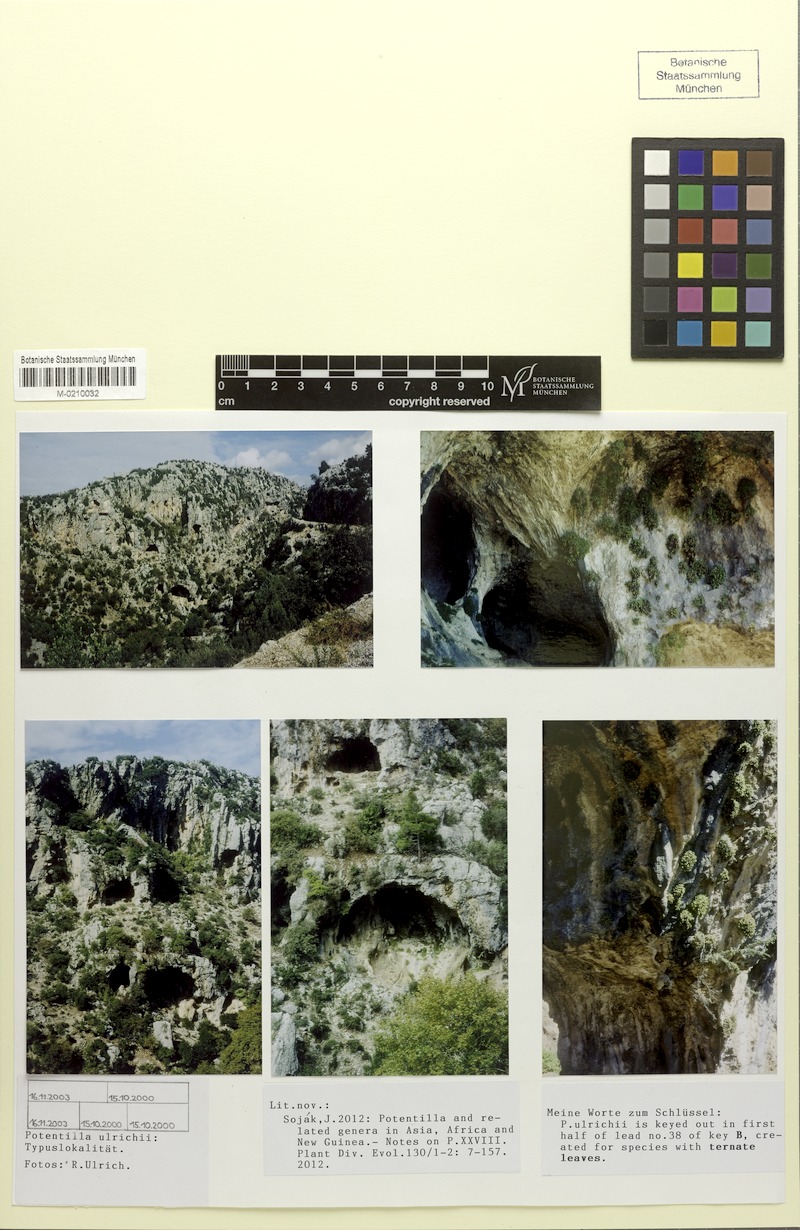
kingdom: Plantae
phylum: Tracheophyta
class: Magnoliopsida
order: Rosales
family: Rosaceae
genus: Potentilla
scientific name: Potentilla ulrichii
